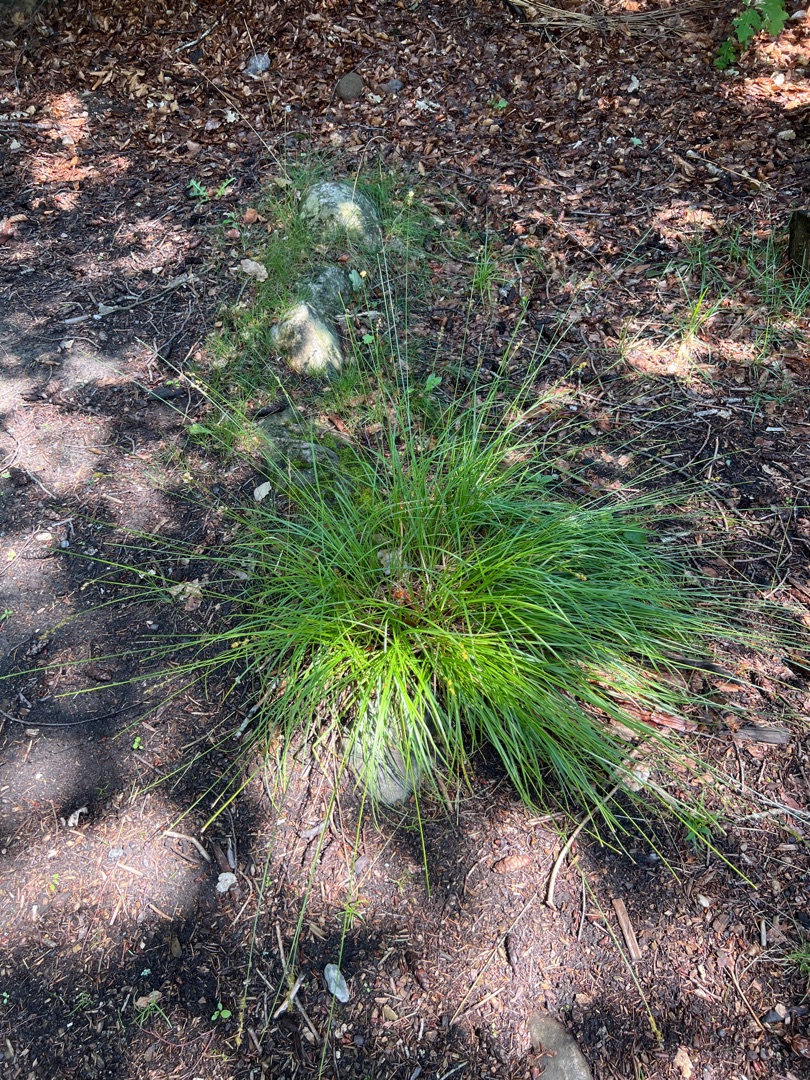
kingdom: Plantae
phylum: Tracheophyta
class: Liliopsida
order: Poales
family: Cyperaceae
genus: Carex
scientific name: Carex leersii
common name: Mellembrudt star (underart)
